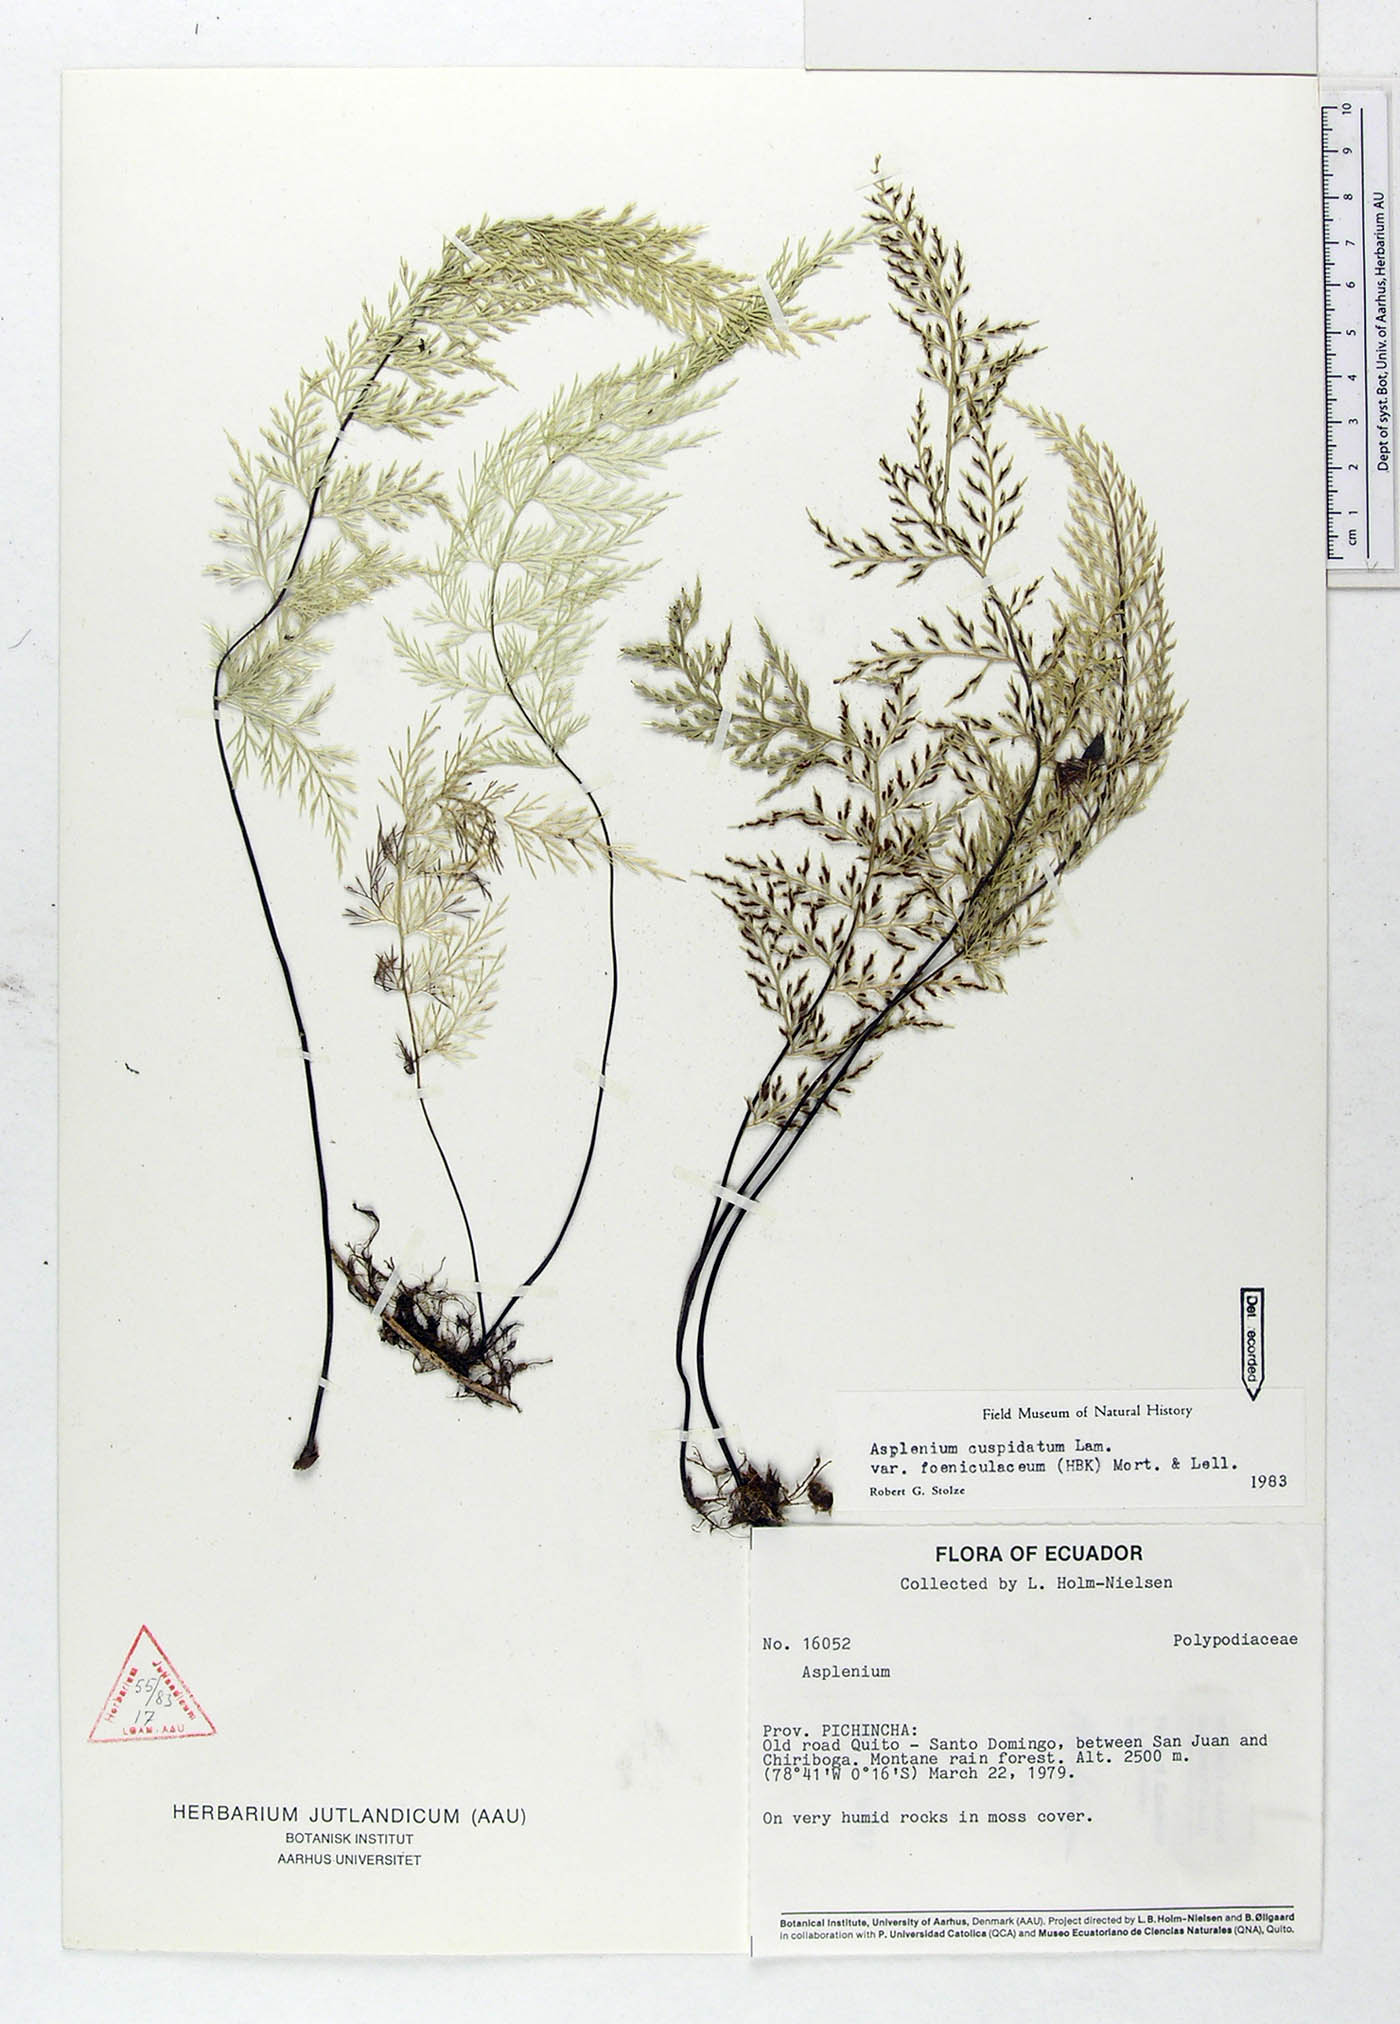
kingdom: Plantae
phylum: Tracheophyta
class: Polypodiopsida
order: Polypodiales
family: Aspleniaceae
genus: Asplenium
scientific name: Asplenium fragrans
